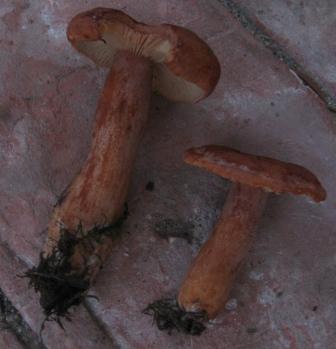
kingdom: Fungi
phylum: Basidiomycota
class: Agaricomycetes
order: Russulales
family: Russulaceae
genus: Lactarius
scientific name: Lactarius fulvissimus
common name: ræve-mælkehat
